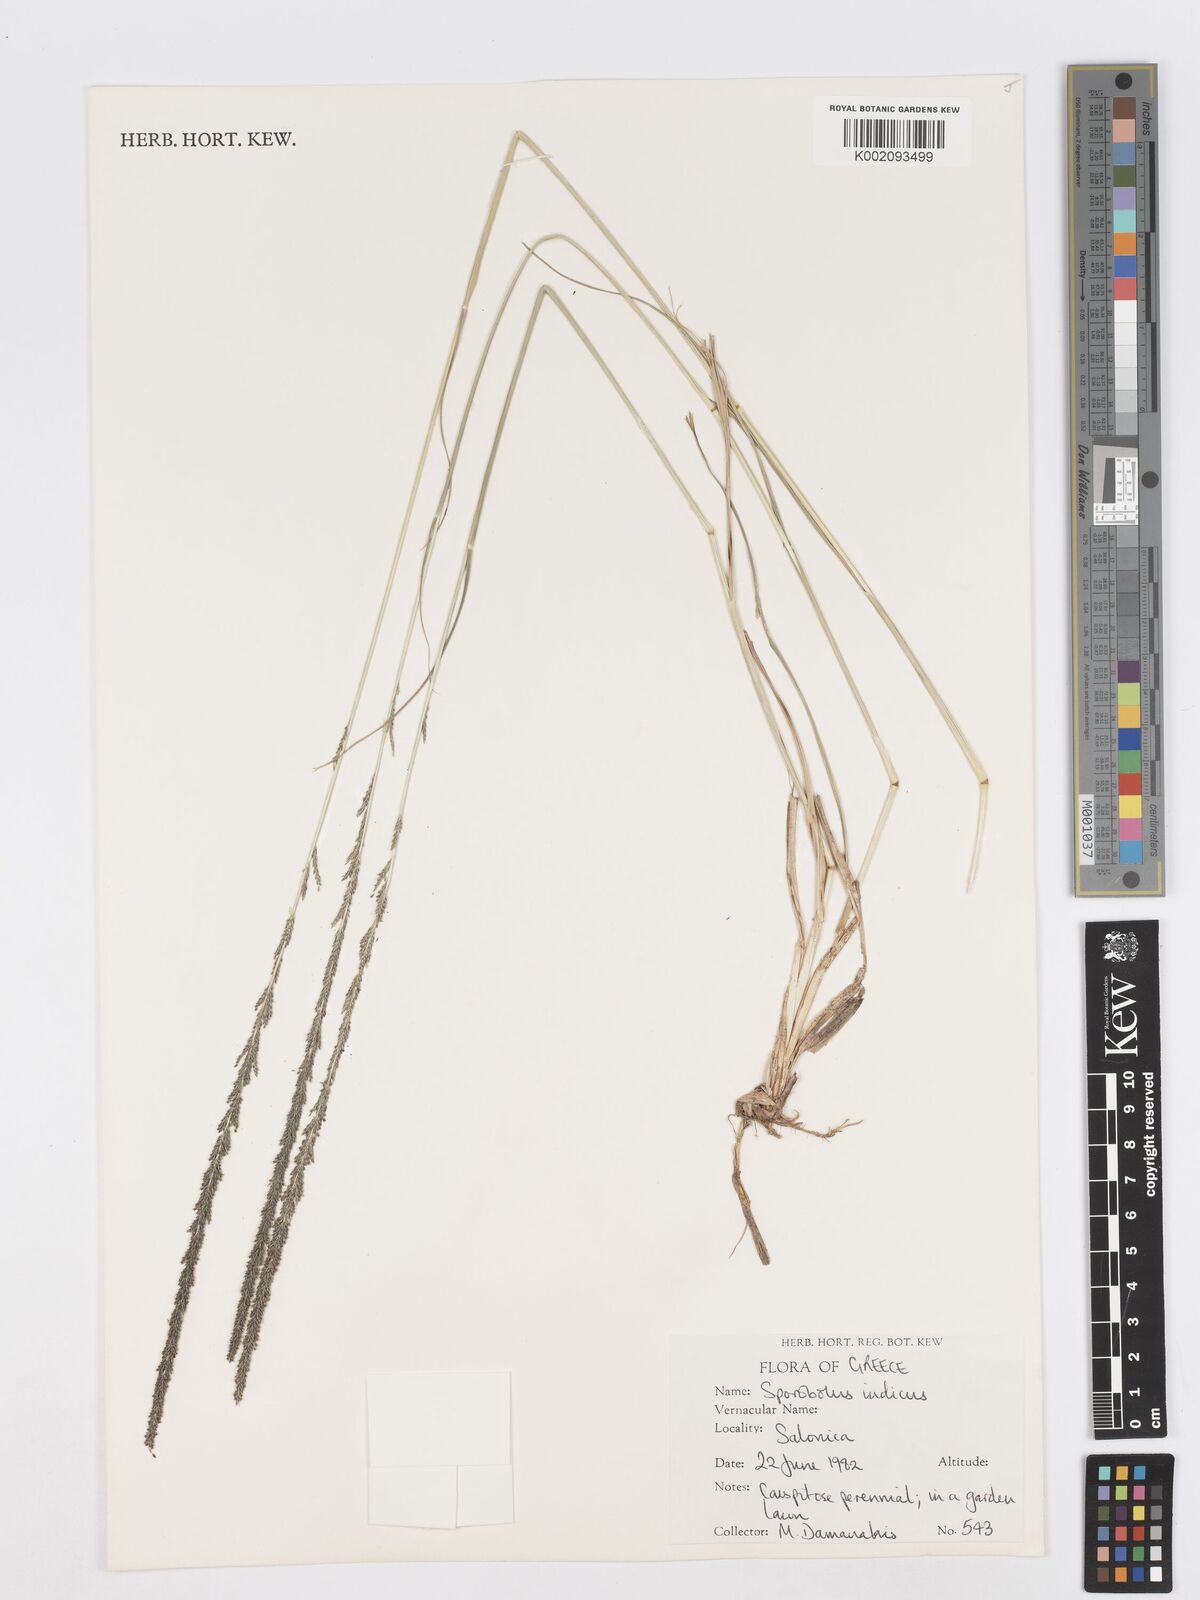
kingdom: Plantae
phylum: Tracheophyta
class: Liliopsida
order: Poales
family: Poaceae
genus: Sporobolus
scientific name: Sporobolus indicus
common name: Smut grass
